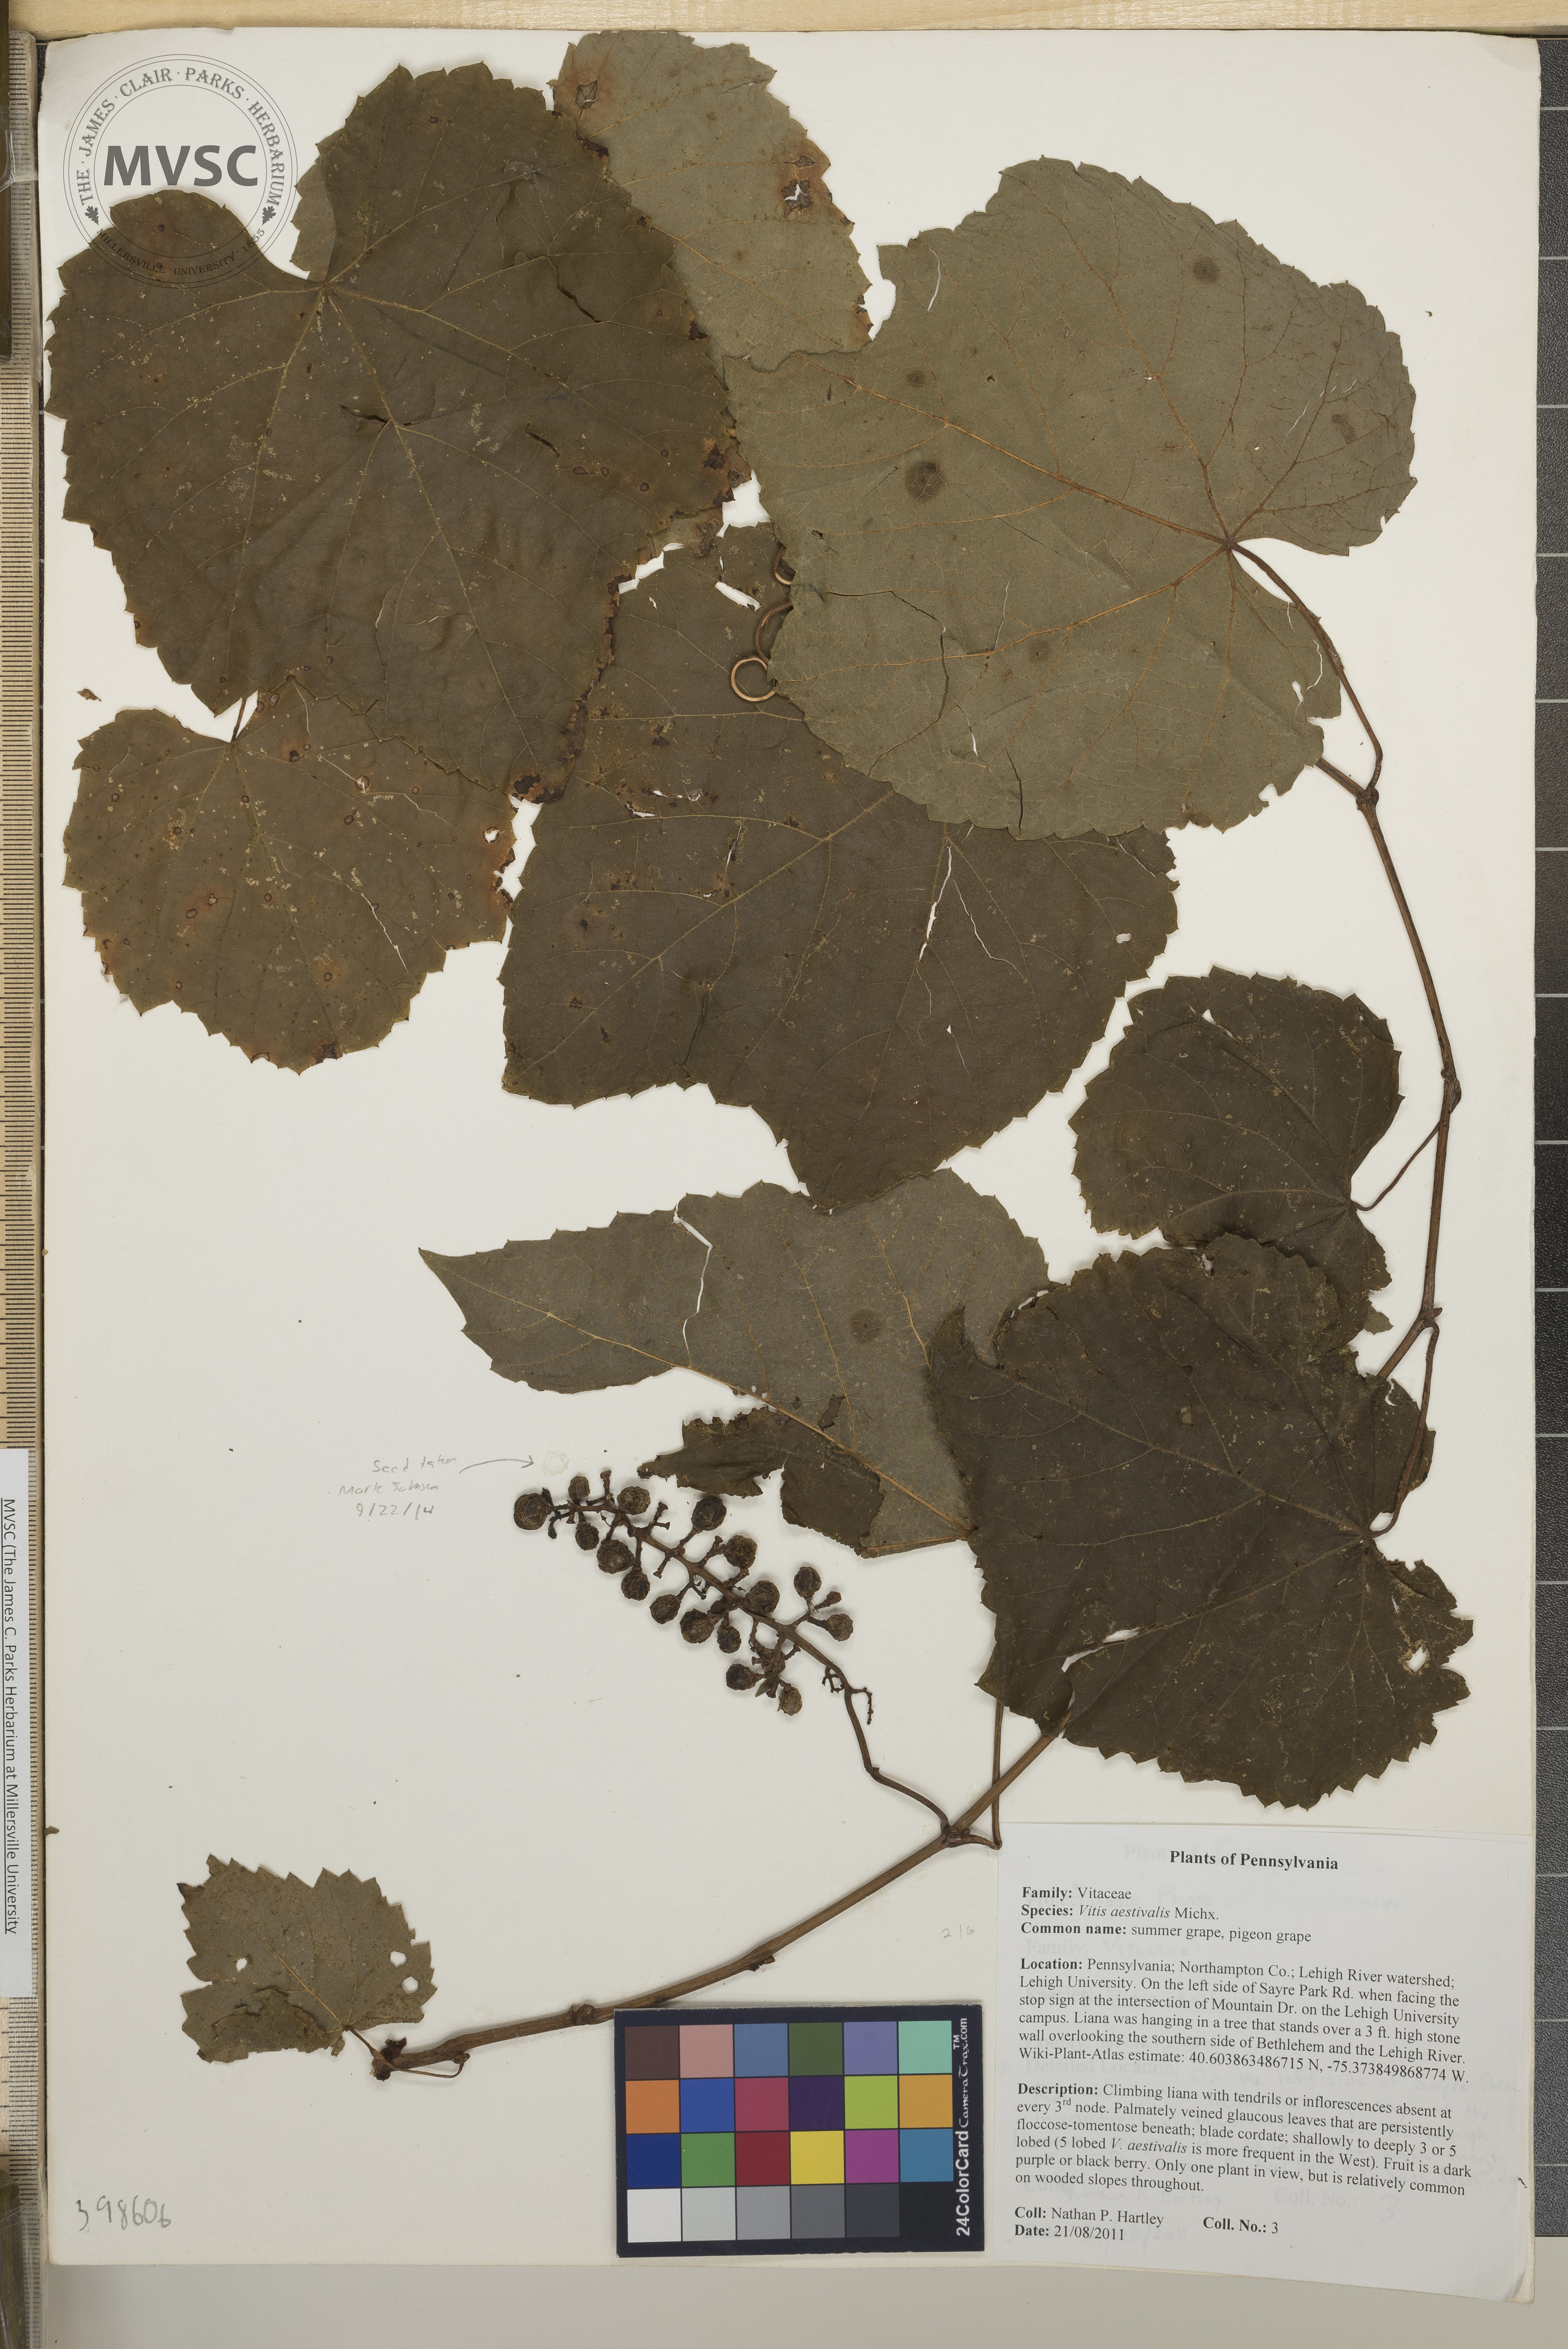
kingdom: Plantae
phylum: Tracheophyta
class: Magnoliopsida
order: Vitales
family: Vitaceae
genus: Vitis
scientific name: Vitis aestivalis
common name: Summer grape
